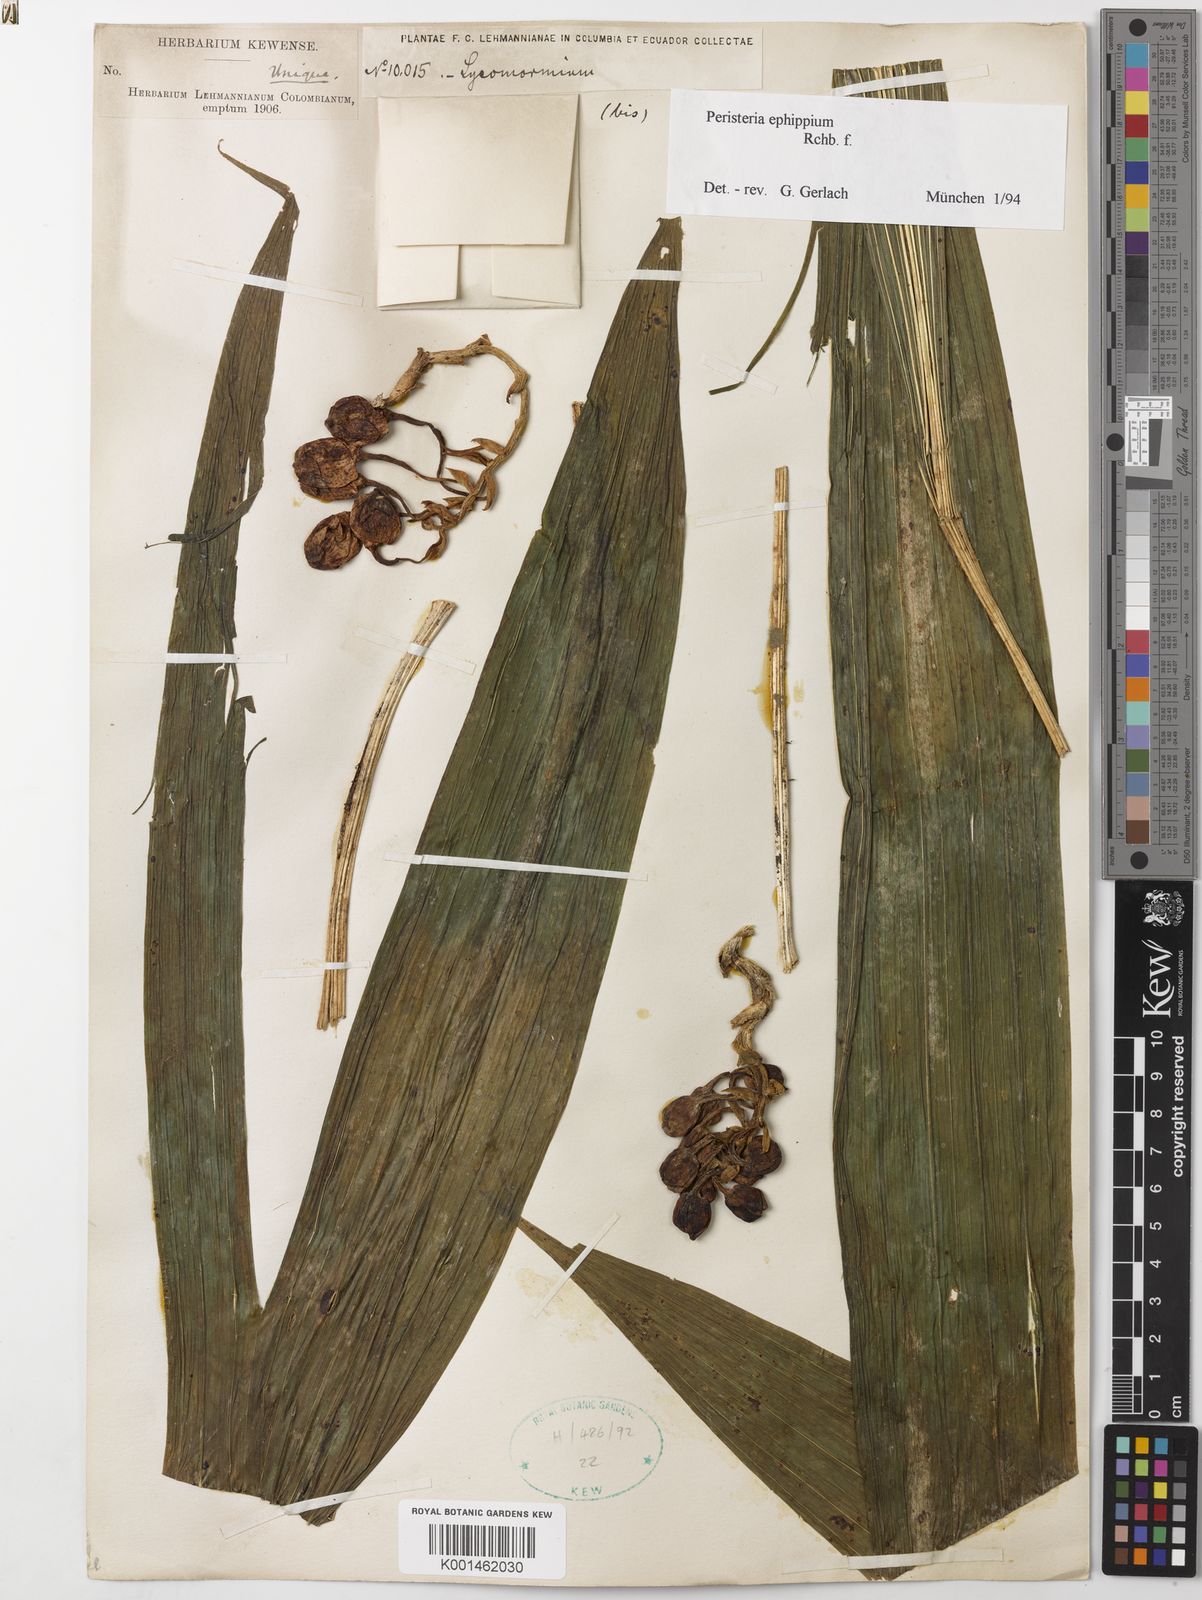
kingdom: Plantae
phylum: Tracheophyta
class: Liliopsida
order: Asparagales
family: Orchidaceae
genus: Peristeria
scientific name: Peristeria ephippium
